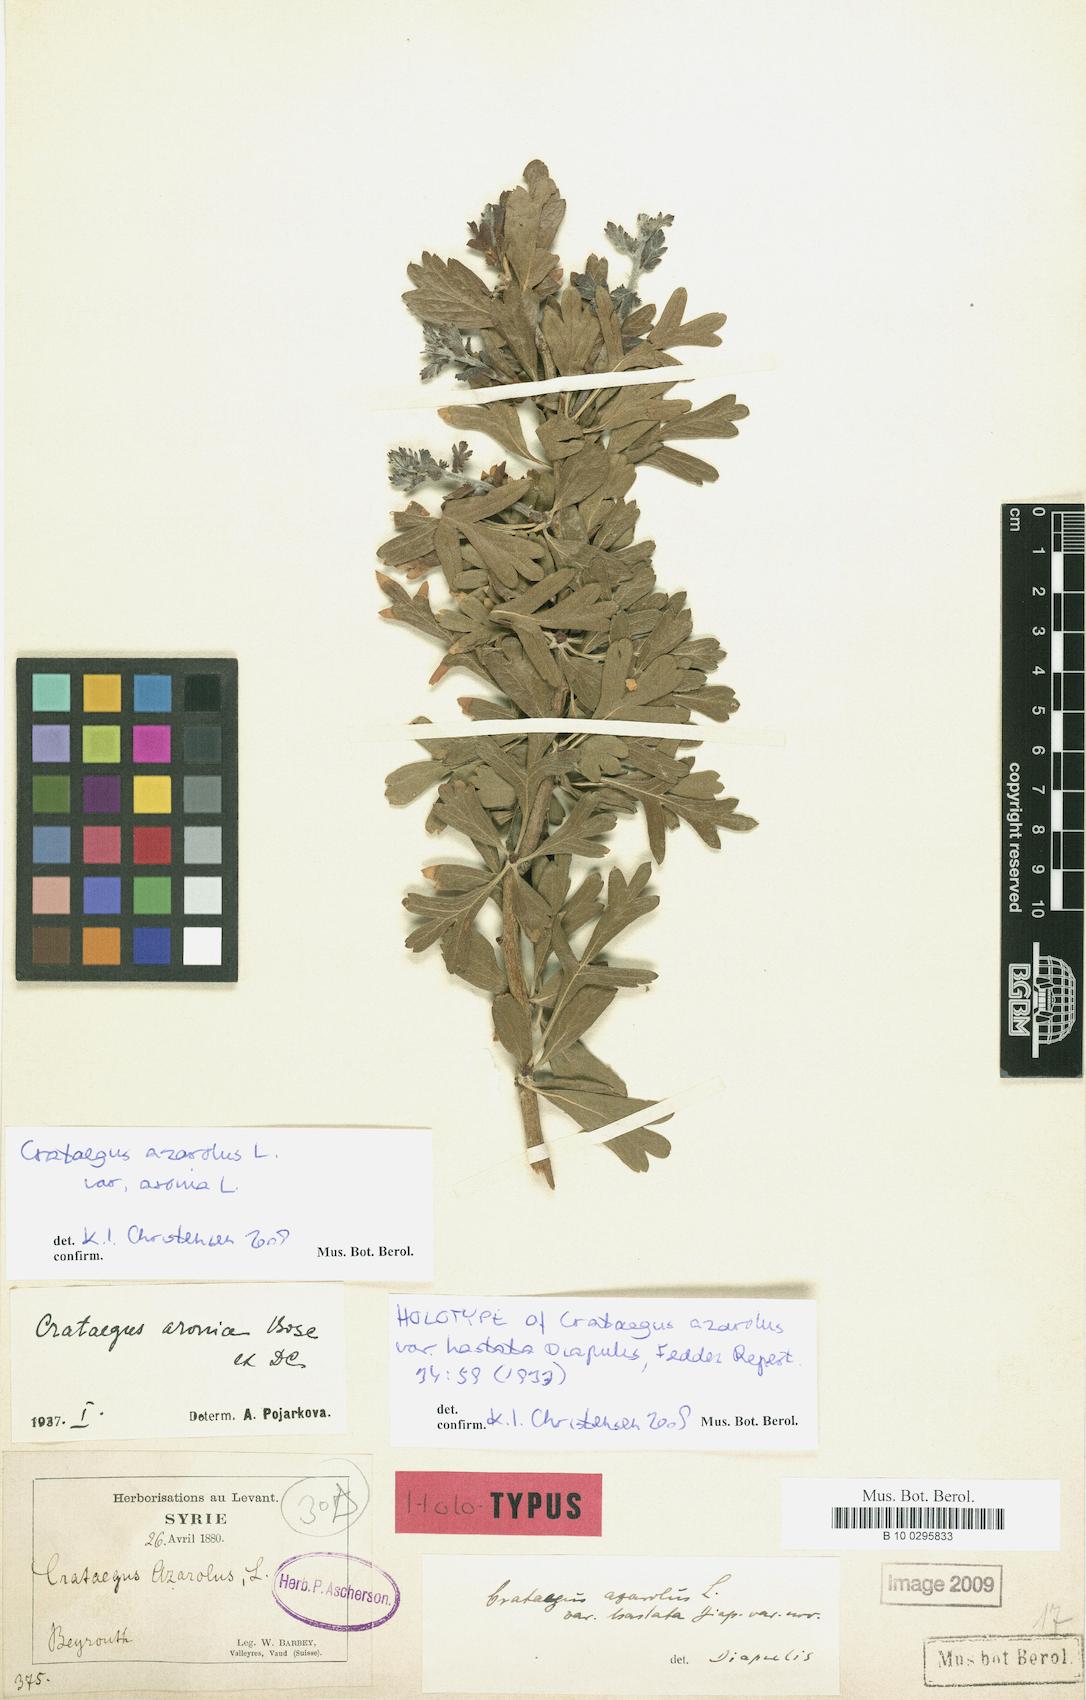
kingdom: Plantae
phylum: Tracheophyta
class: Magnoliopsida
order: Rosales
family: Rosaceae
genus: Crataegus
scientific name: Crataegus azarolus
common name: Azarole
